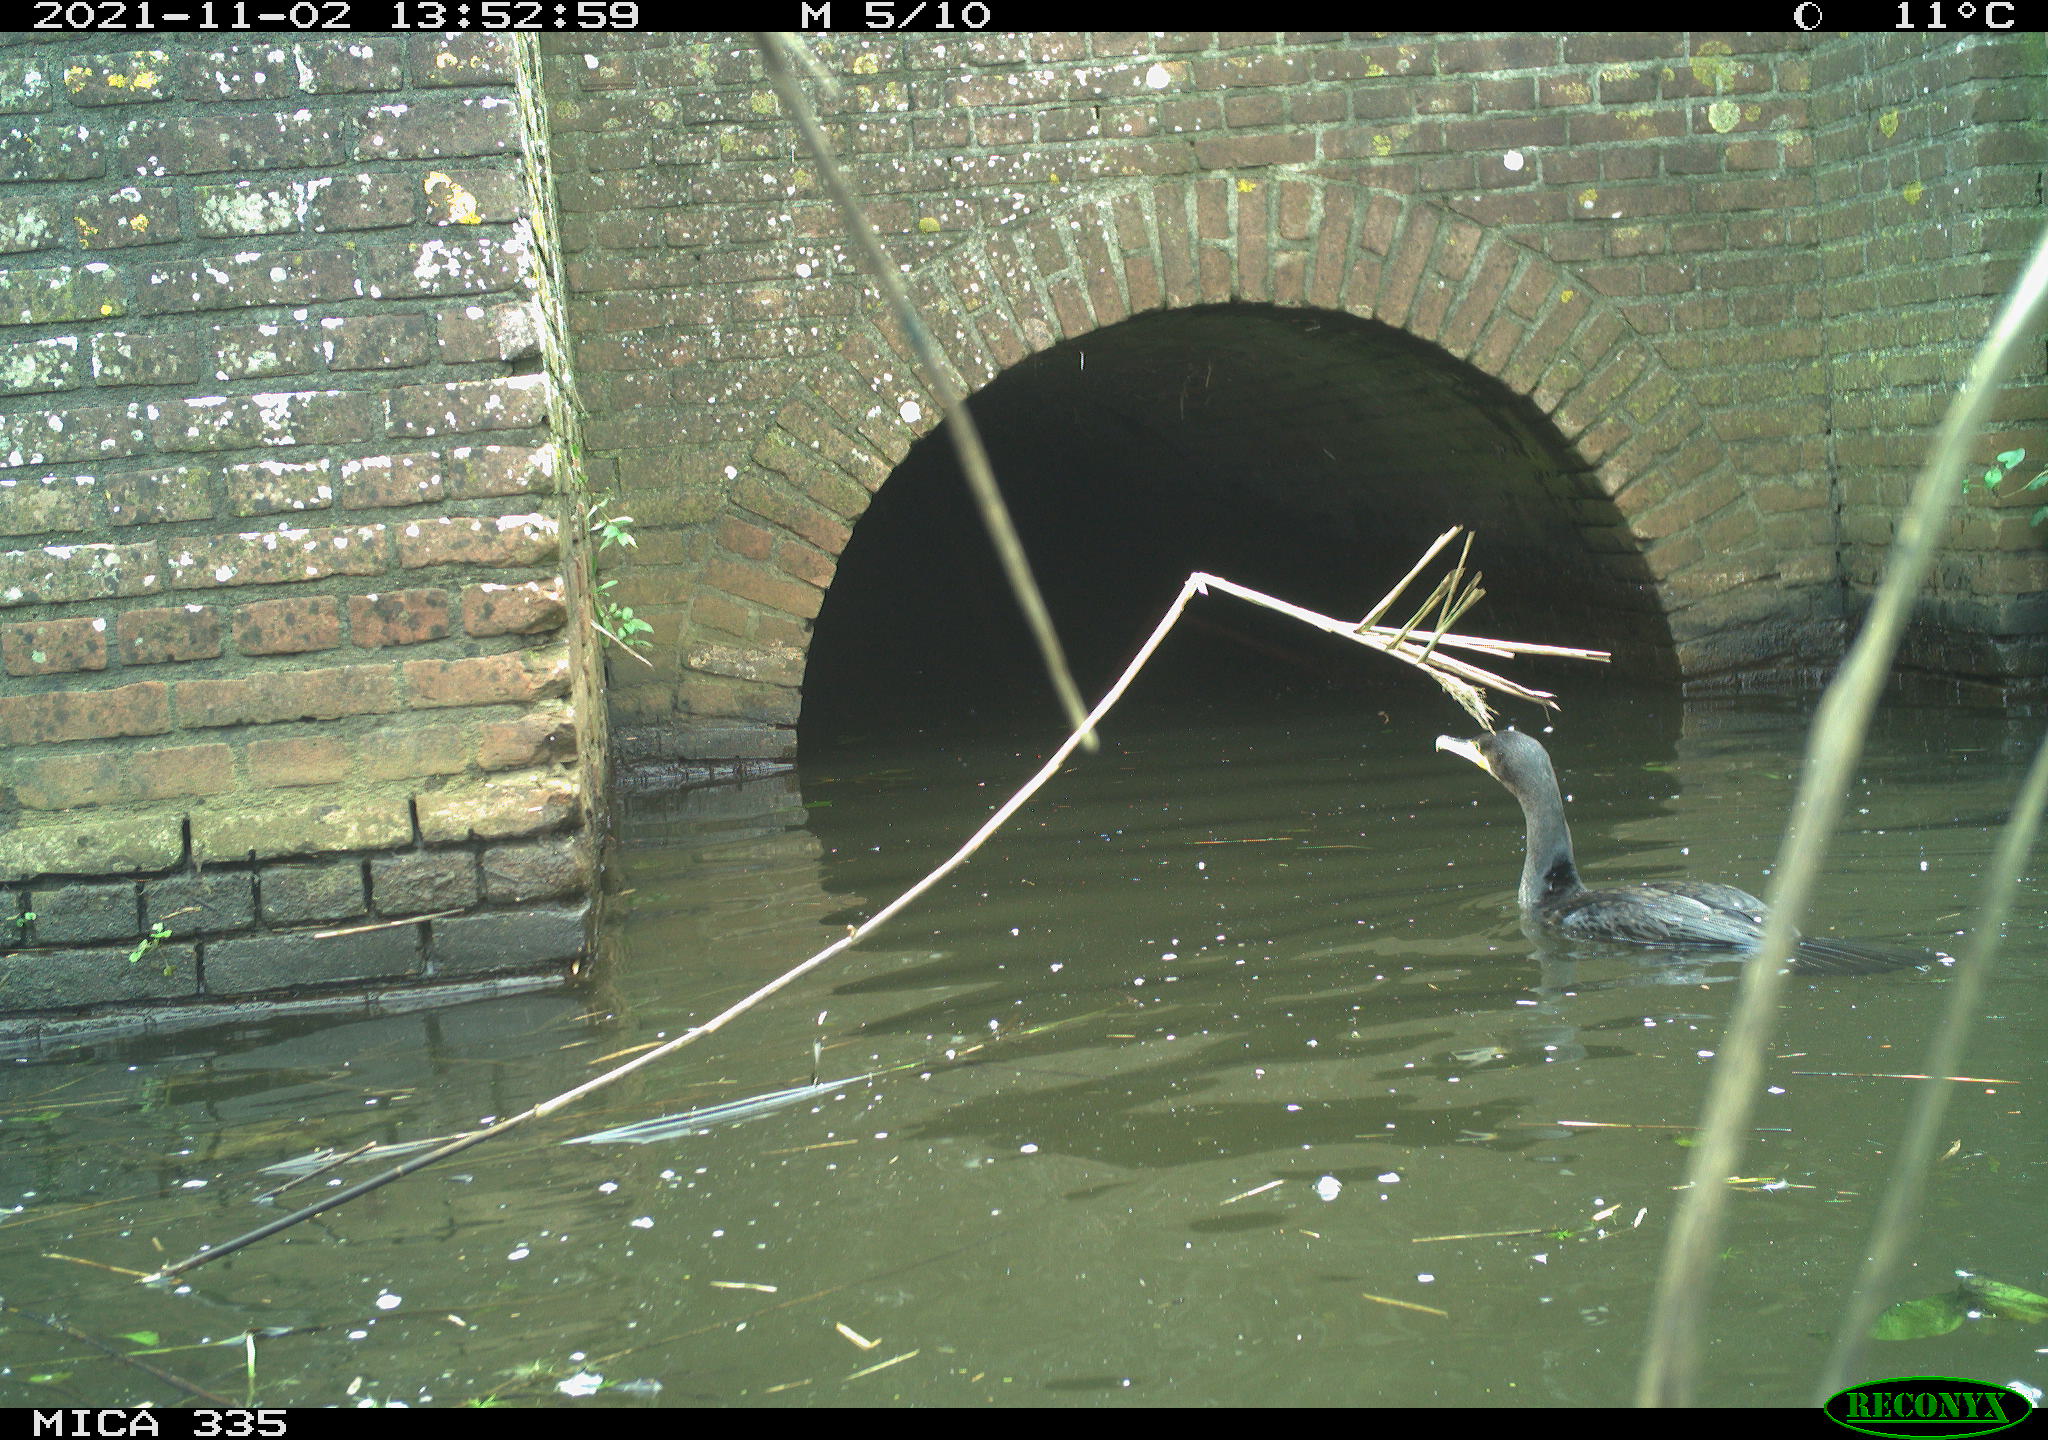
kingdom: Animalia
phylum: Chordata
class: Aves
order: Podicipediformes
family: Podicipedidae
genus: Podiceps
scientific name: Podiceps cristatus
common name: Great crested grebe
